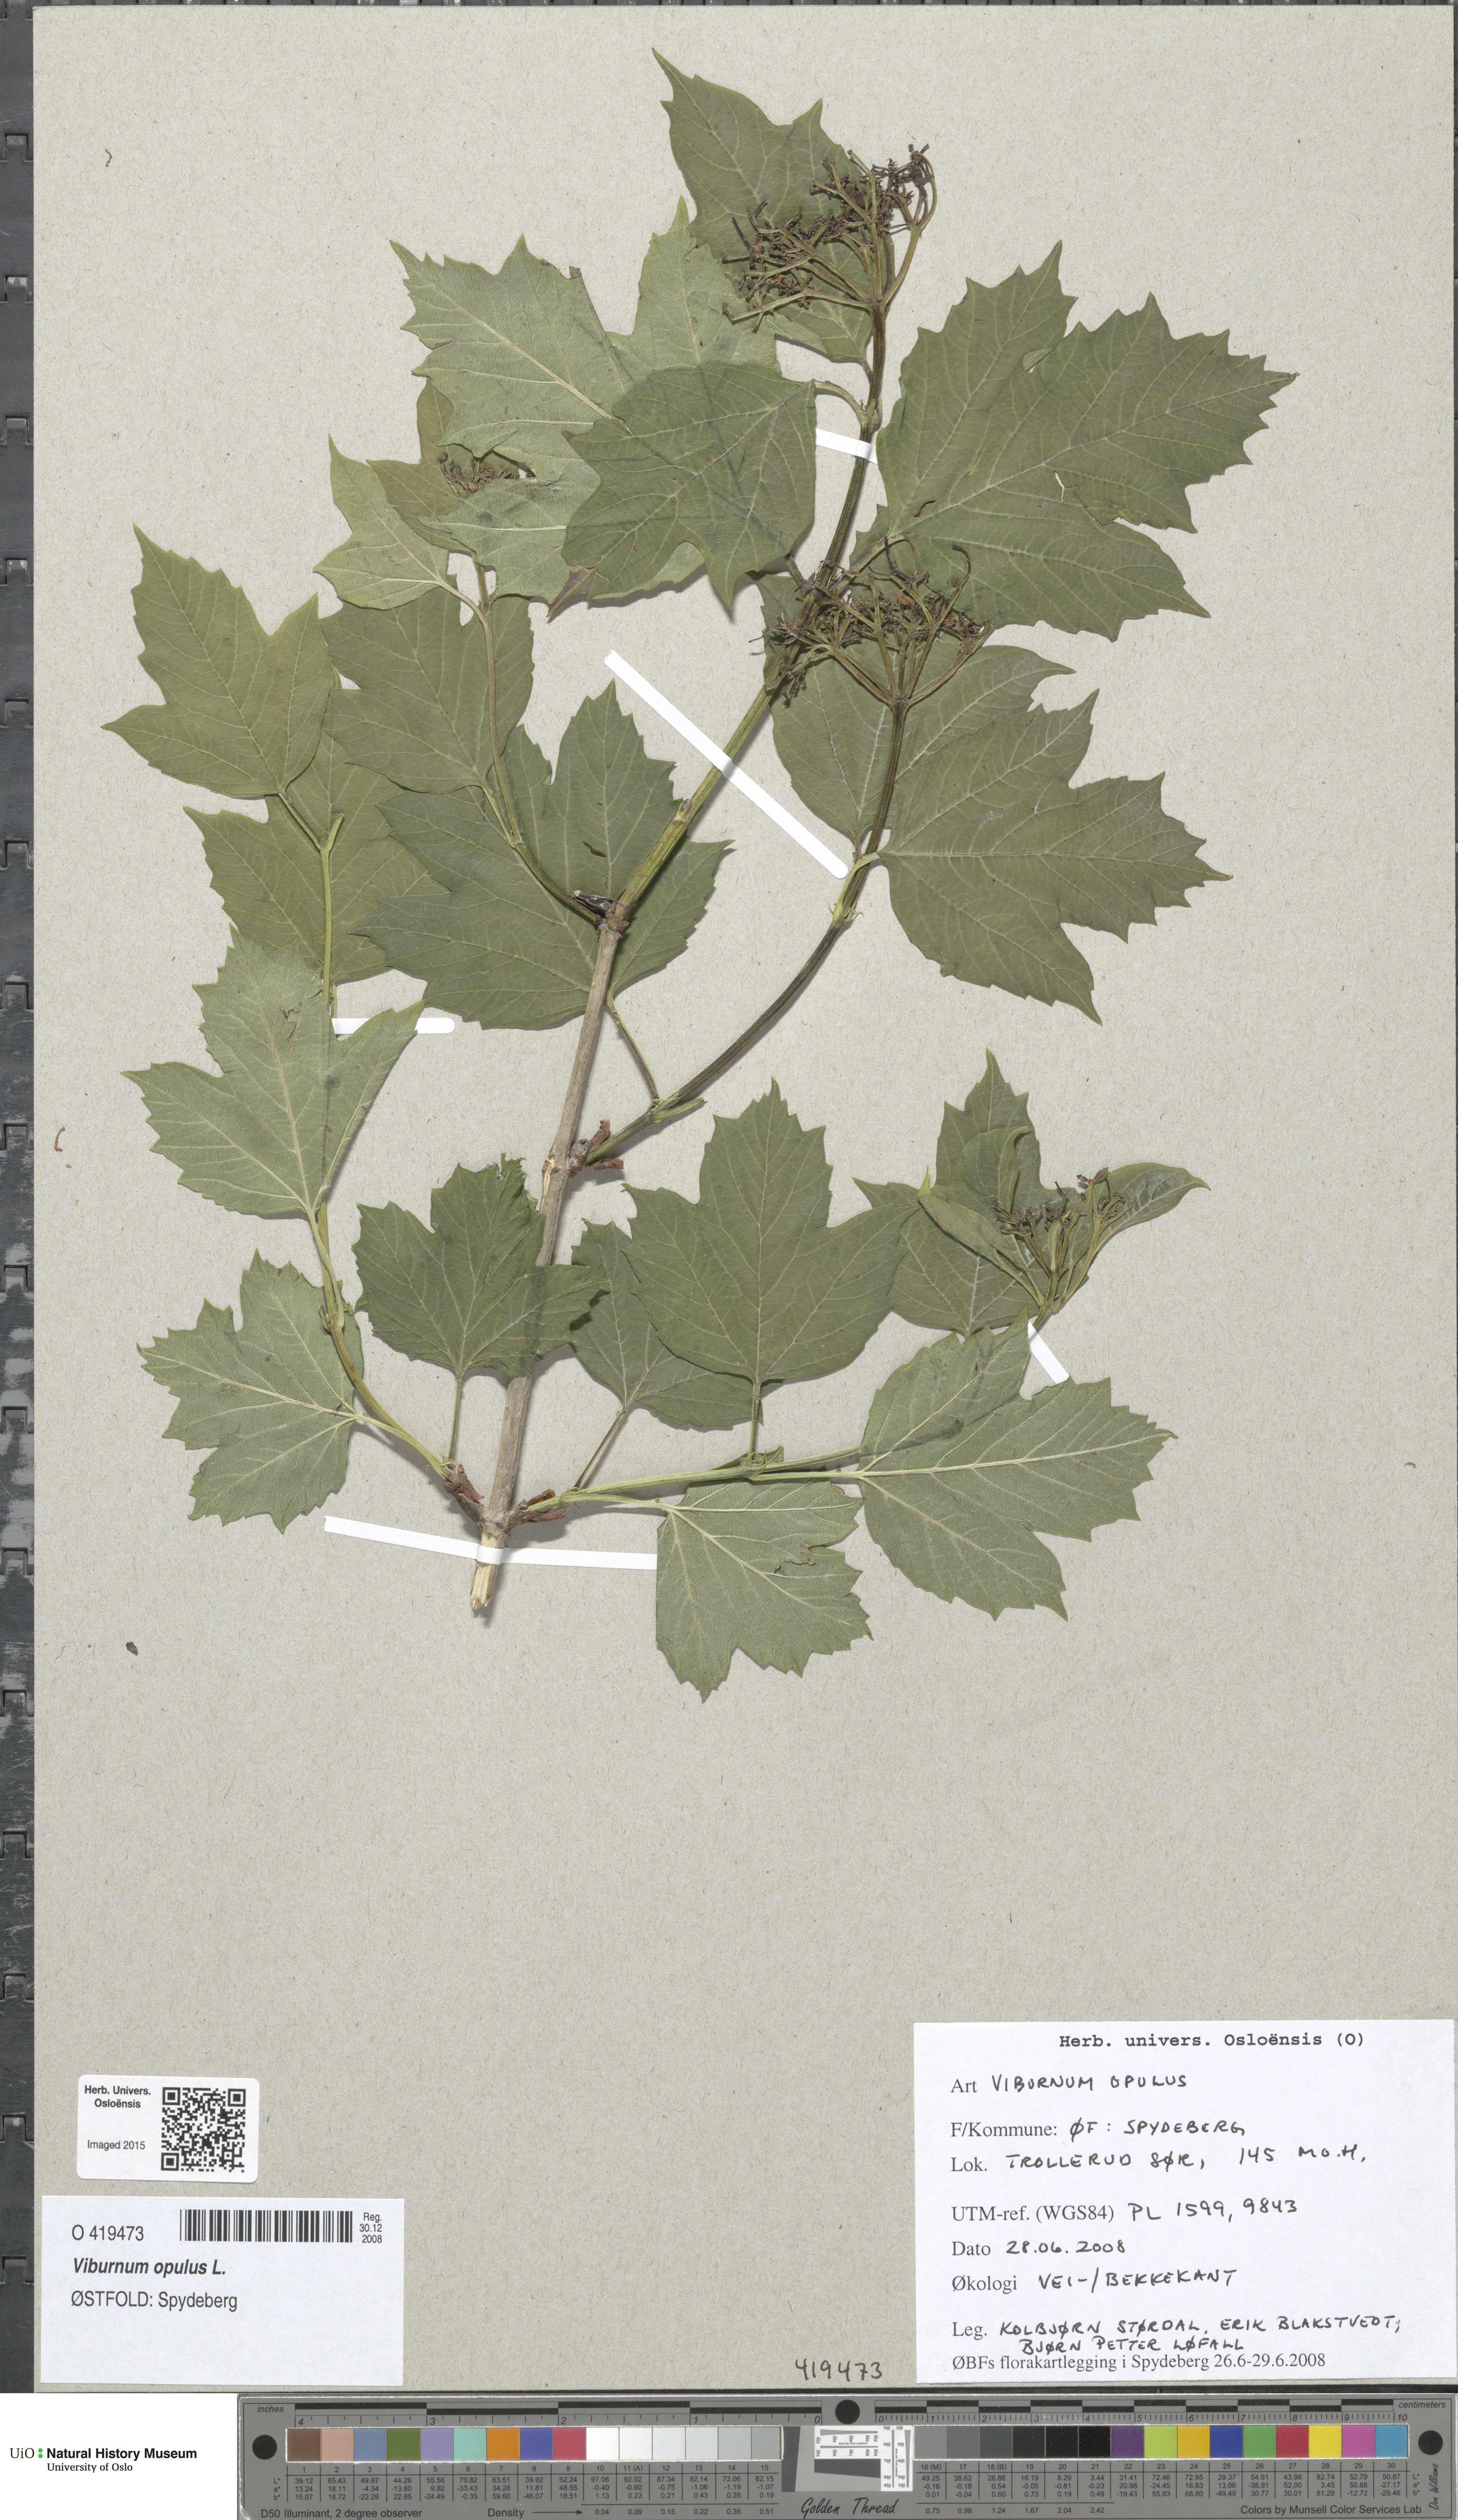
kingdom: Plantae
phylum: Tracheophyta
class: Magnoliopsida
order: Dipsacales
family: Viburnaceae
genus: Viburnum
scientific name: Viburnum opulus
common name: Guelder-rose
